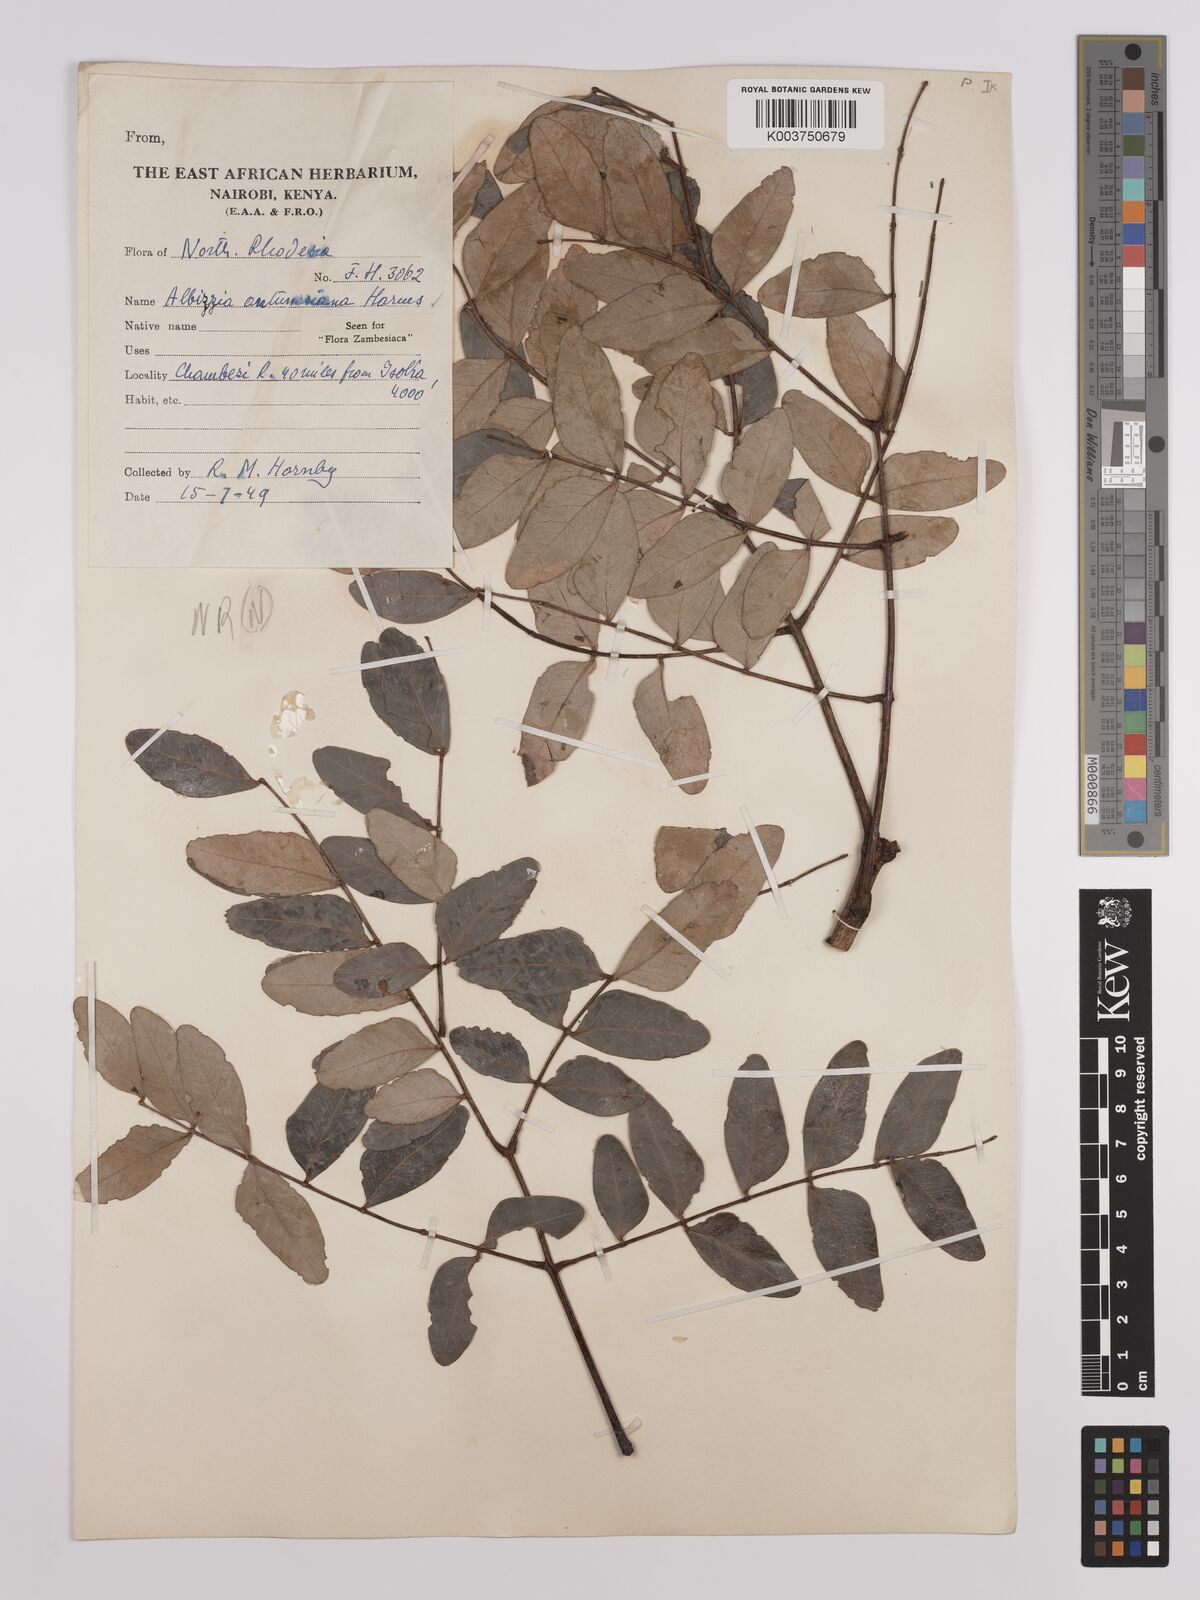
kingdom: Plantae
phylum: Tracheophyta
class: Magnoliopsida
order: Fabales
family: Fabaceae
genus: Albizia
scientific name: Albizia antunesiana
